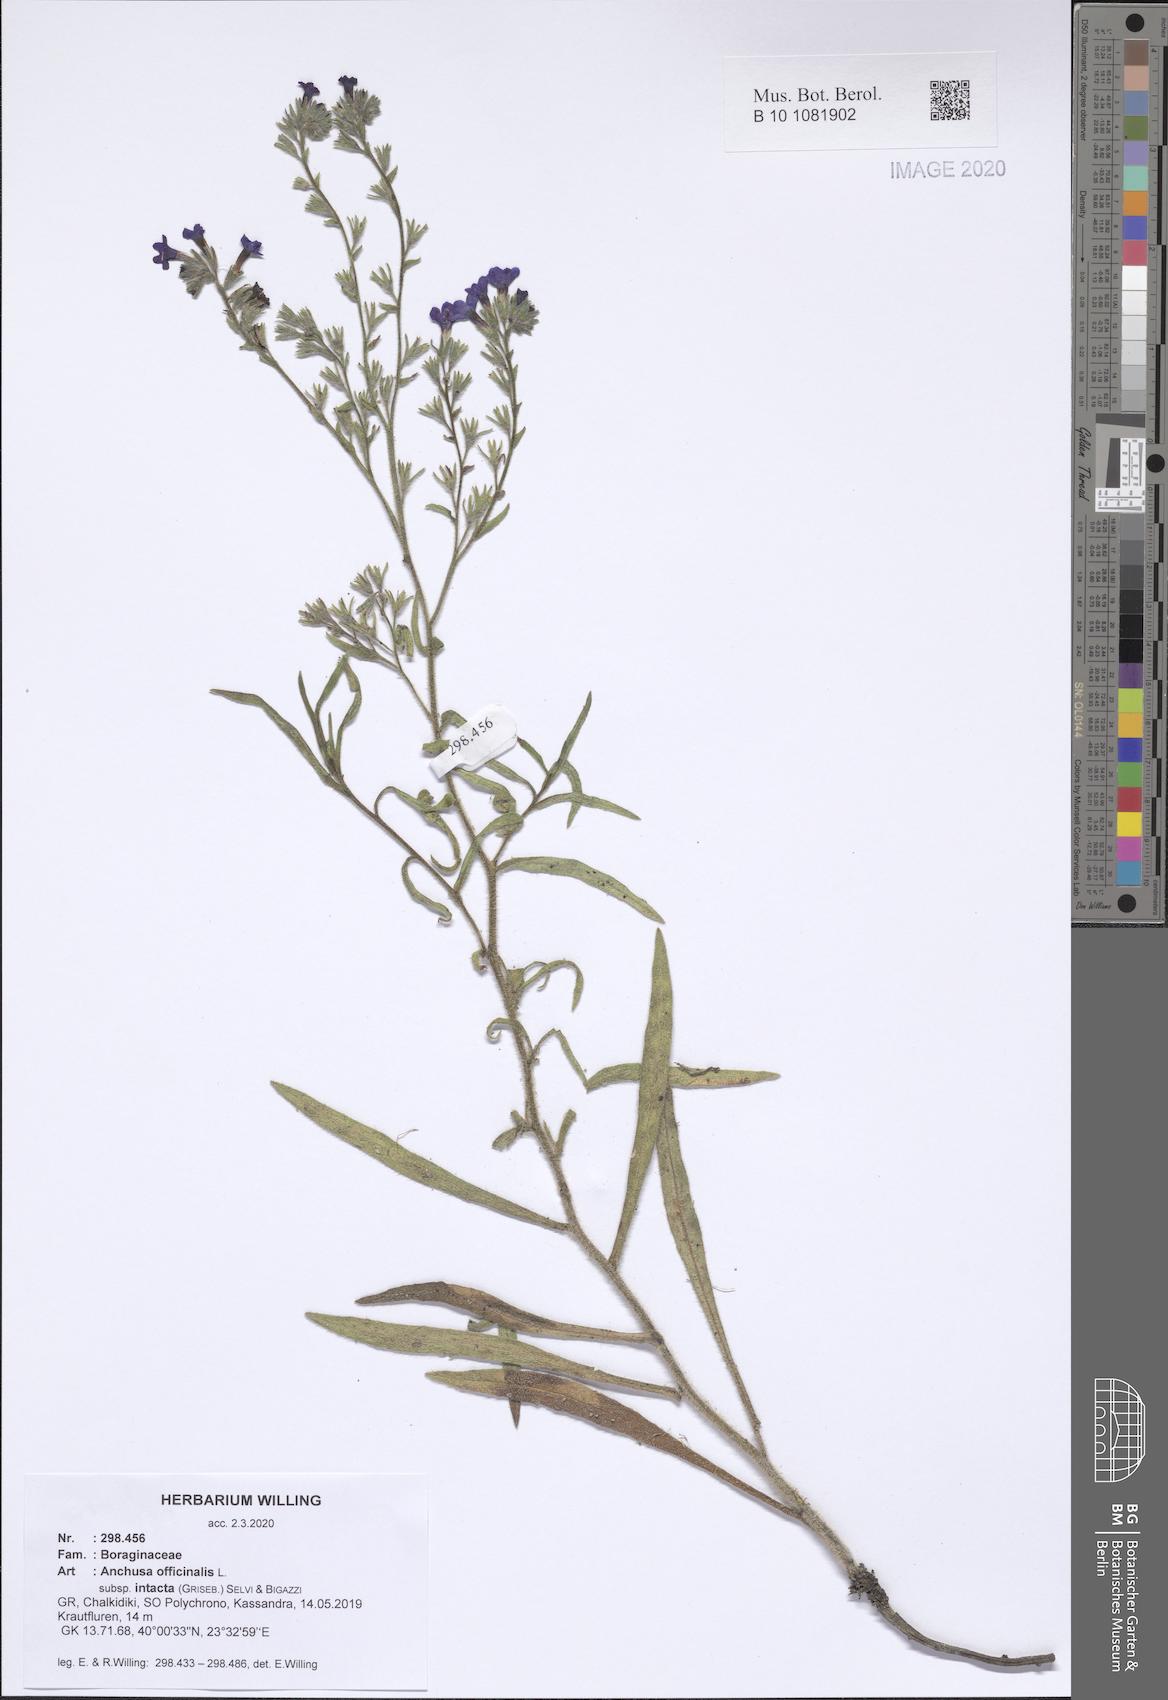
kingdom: Plantae
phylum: Tracheophyta
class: Magnoliopsida
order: Boraginales
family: Boraginaceae
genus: Anchusa
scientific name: Anchusa officinalis
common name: Alkanet
